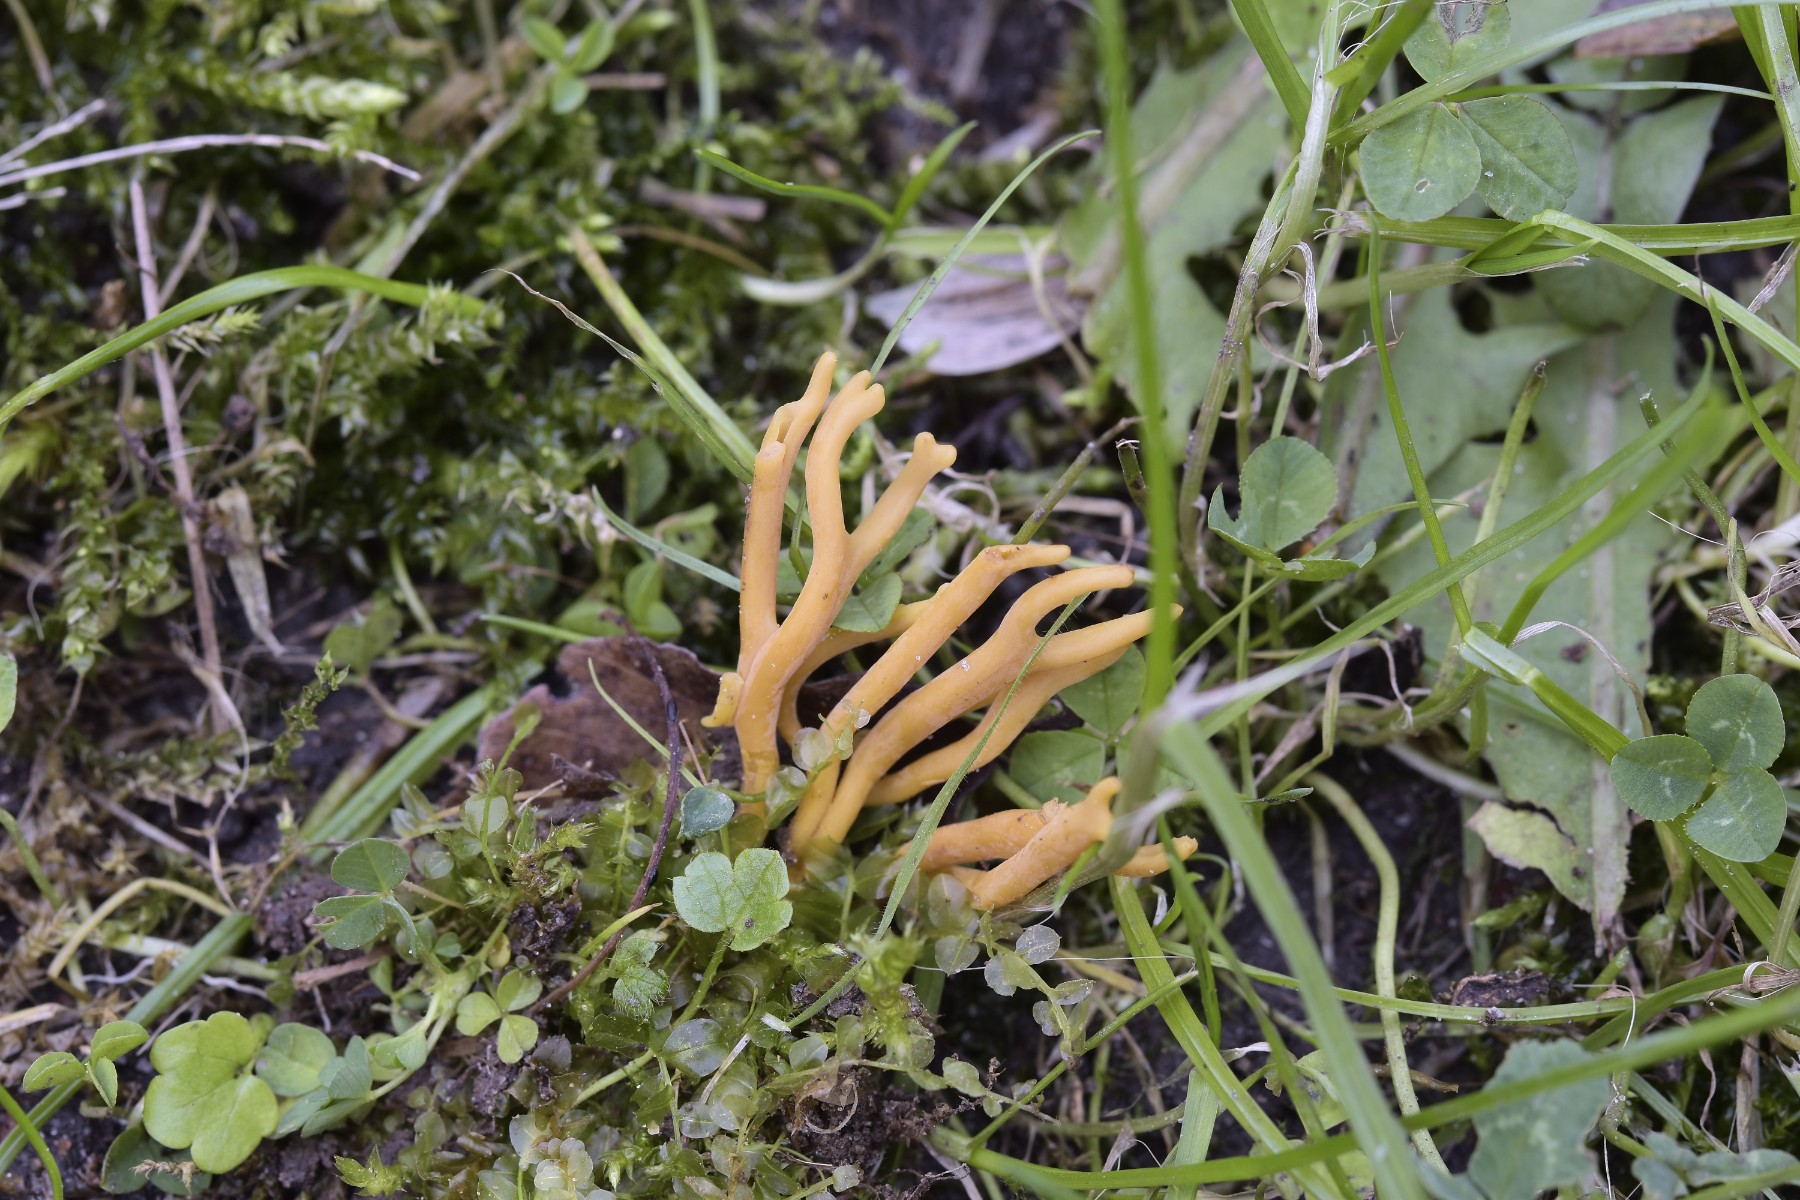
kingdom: Fungi
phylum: Basidiomycota
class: Agaricomycetes
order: Agaricales
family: Clavariaceae
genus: Clavulinopsis
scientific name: Clavulinopsis corniculata
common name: eng-køllesvamp
